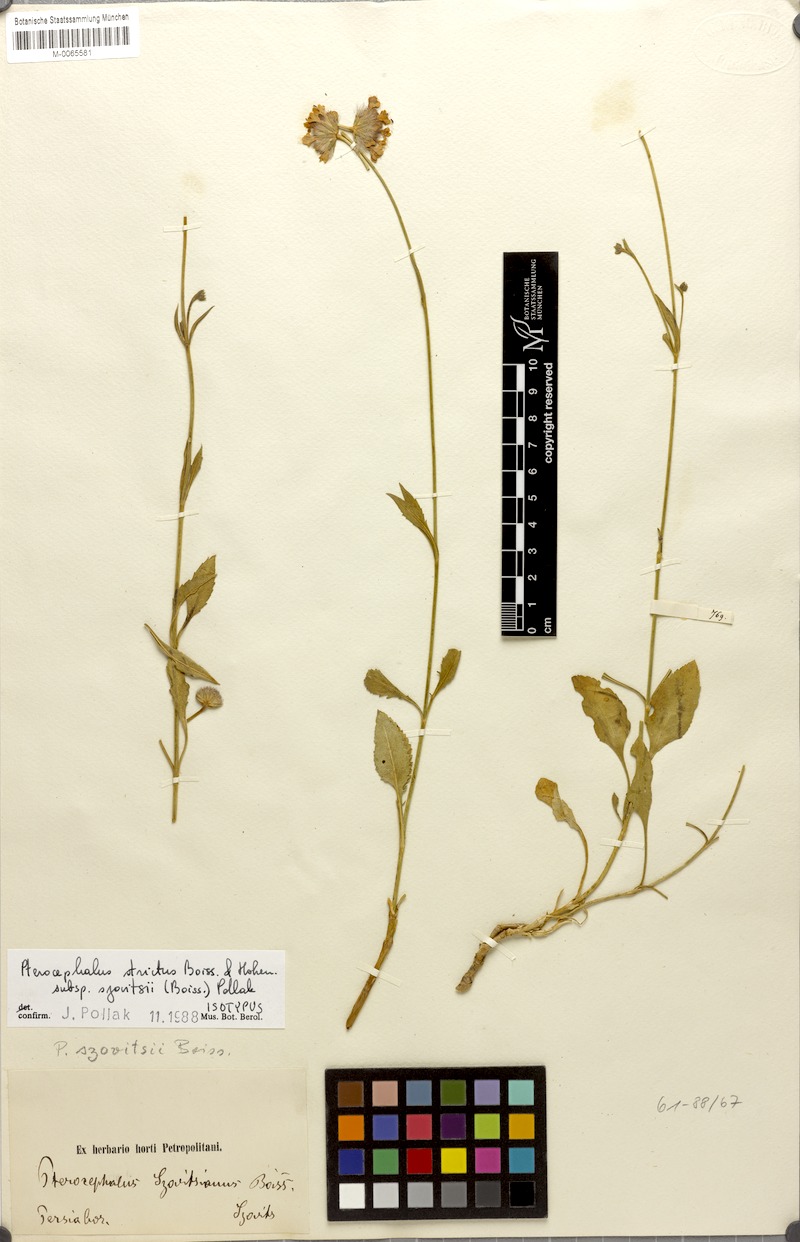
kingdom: Plantae
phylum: Tracheophyta
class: Magnoliopsida
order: Dipsacales
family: Caprifoliaceae
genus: Pterocephalus
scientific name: Pterocephalus szovitsii
